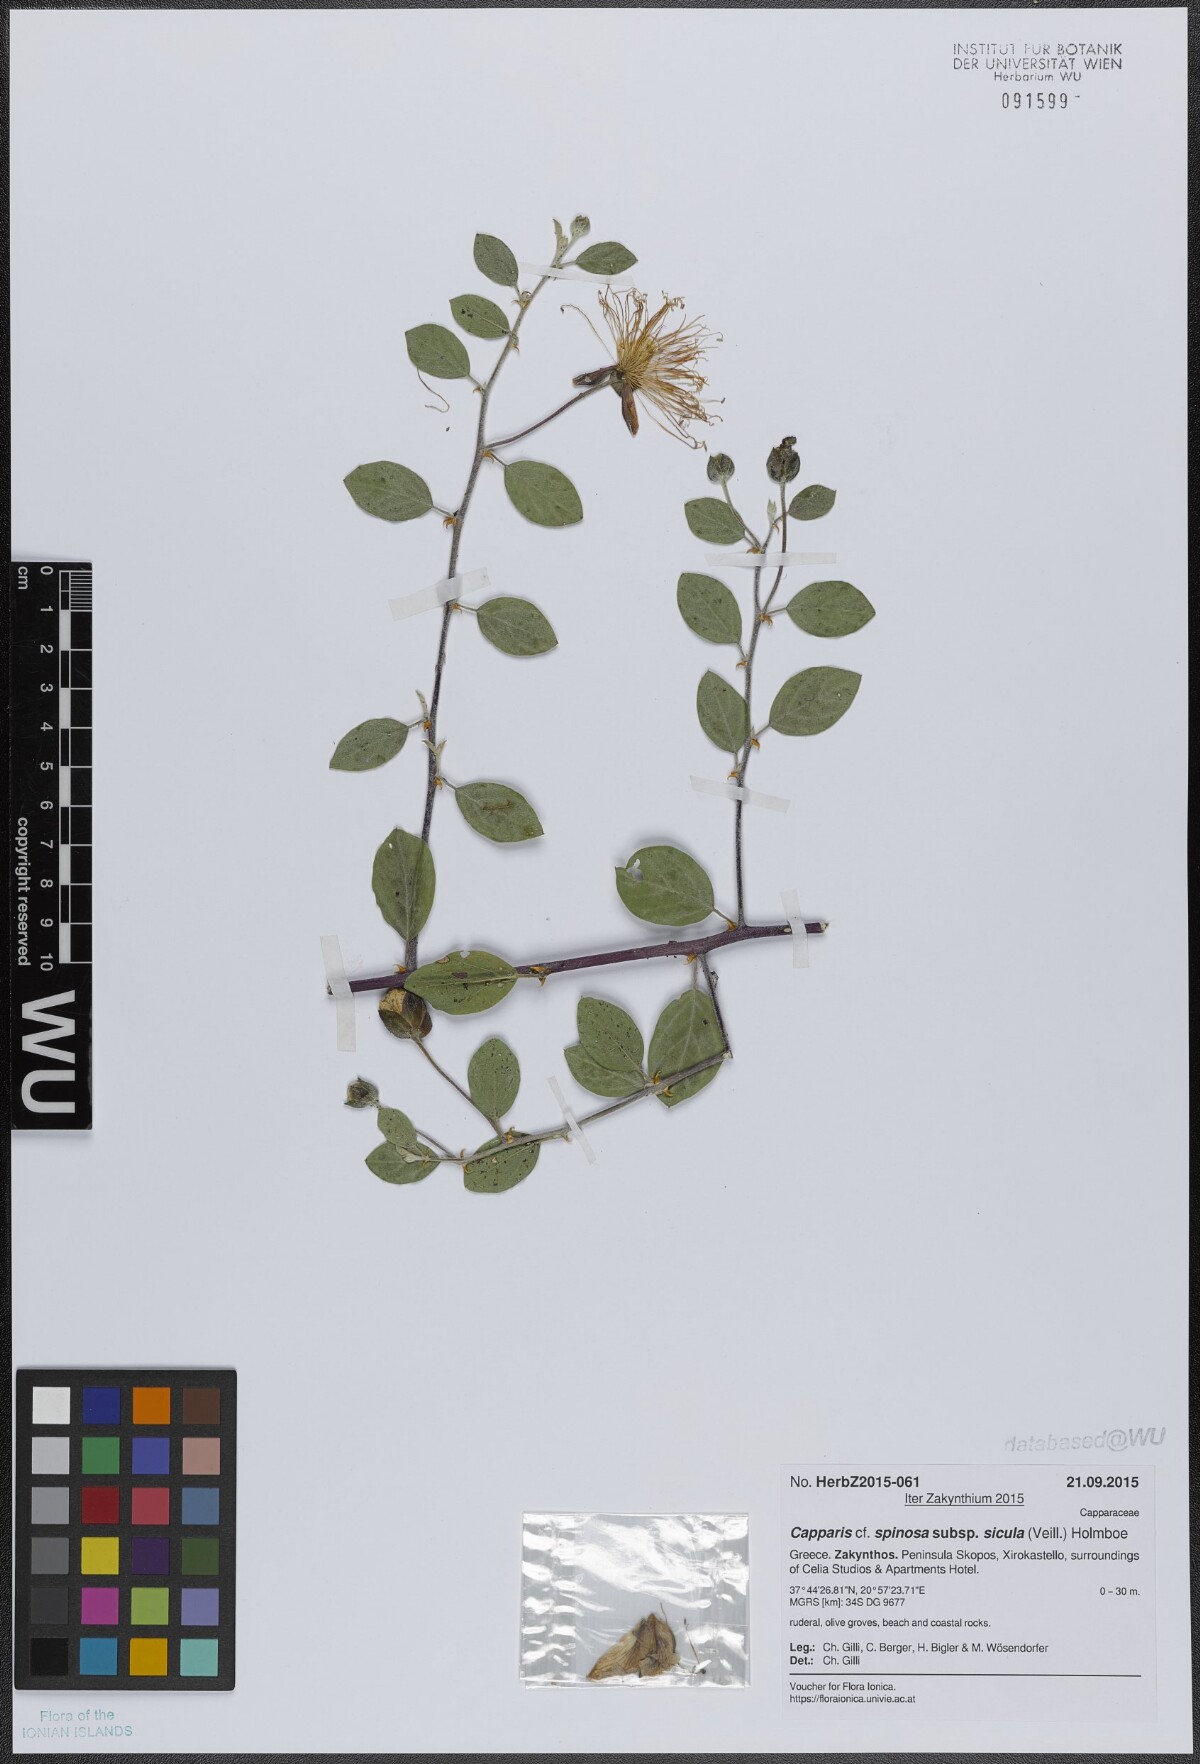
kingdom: Plantae
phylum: Tracheophyta
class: Magnoliopsida
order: Brassicales
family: Capparaceae
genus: Capparis
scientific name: Capparis spinosa
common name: Caper
